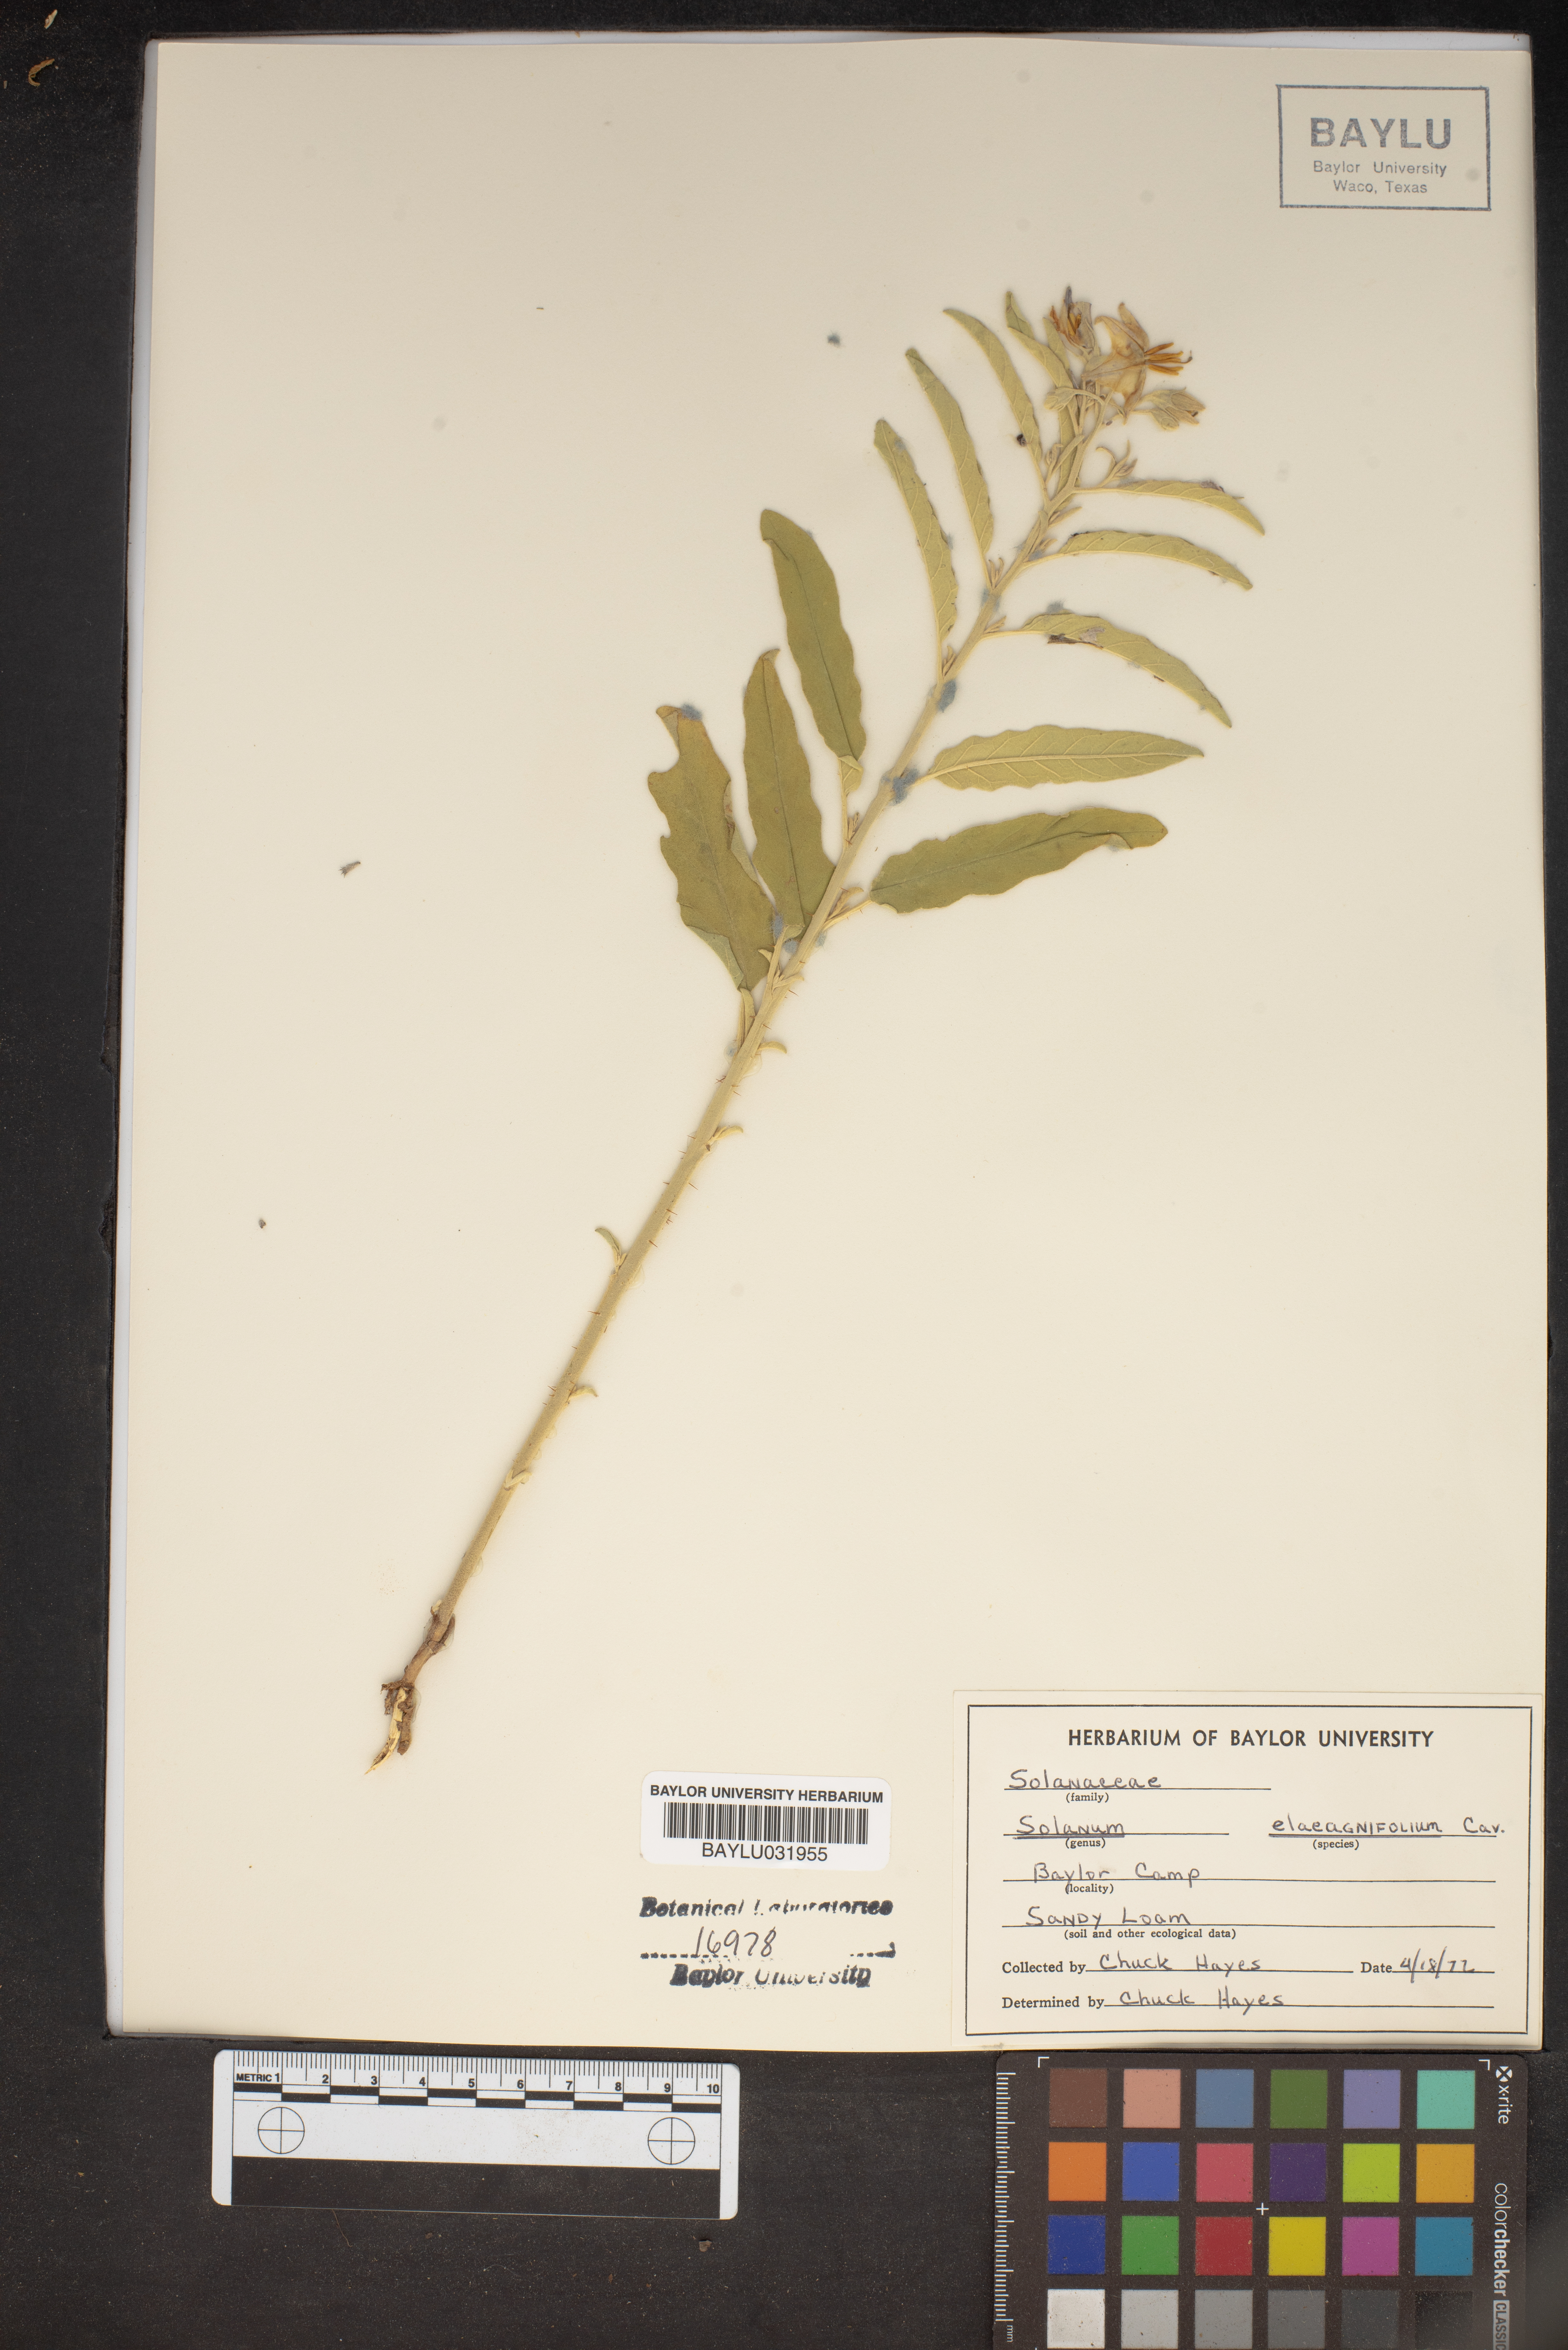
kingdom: Plantae
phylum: Tracheophyta
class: Magnoliopsida
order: Solanales
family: Solanaceae
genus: Solanum
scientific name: Solanum elaeagnifolium
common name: Silverleaf nightshade
